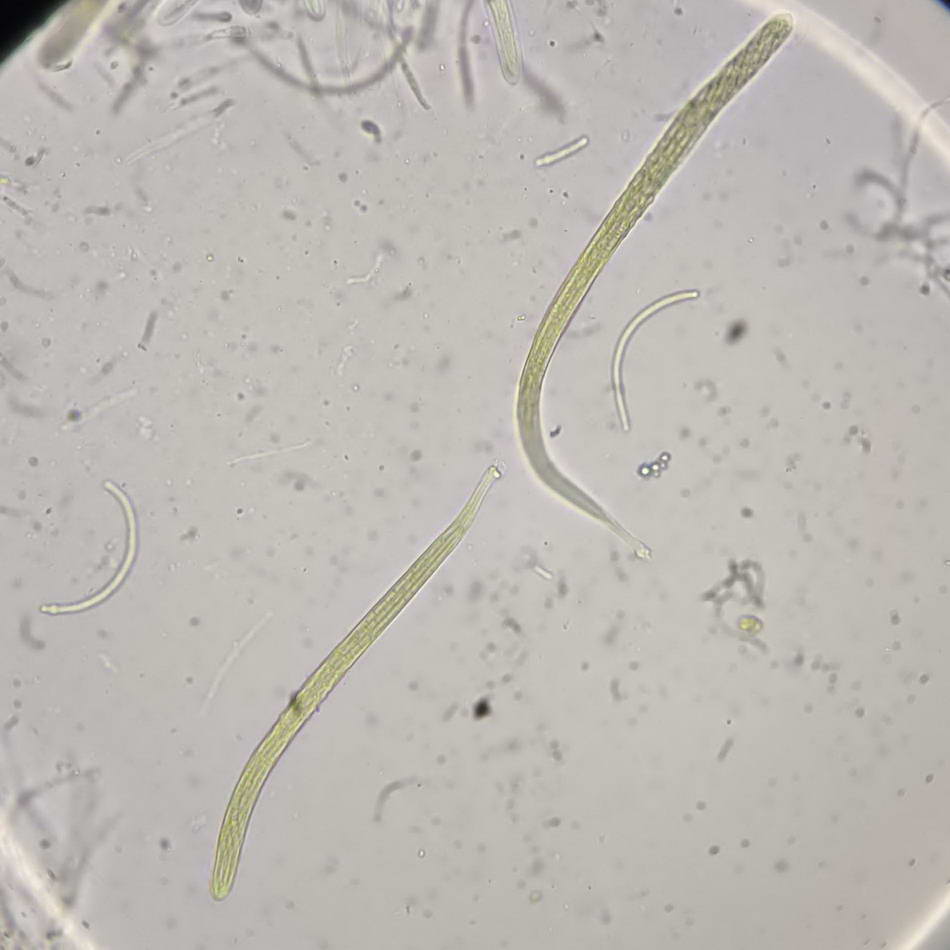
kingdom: Fungi
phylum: Ascomycota
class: Dothideomycetes
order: Pleosporales
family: Phaeosphaeriaceae
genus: Ophiobolus
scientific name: Ophiobolus acuminatus
